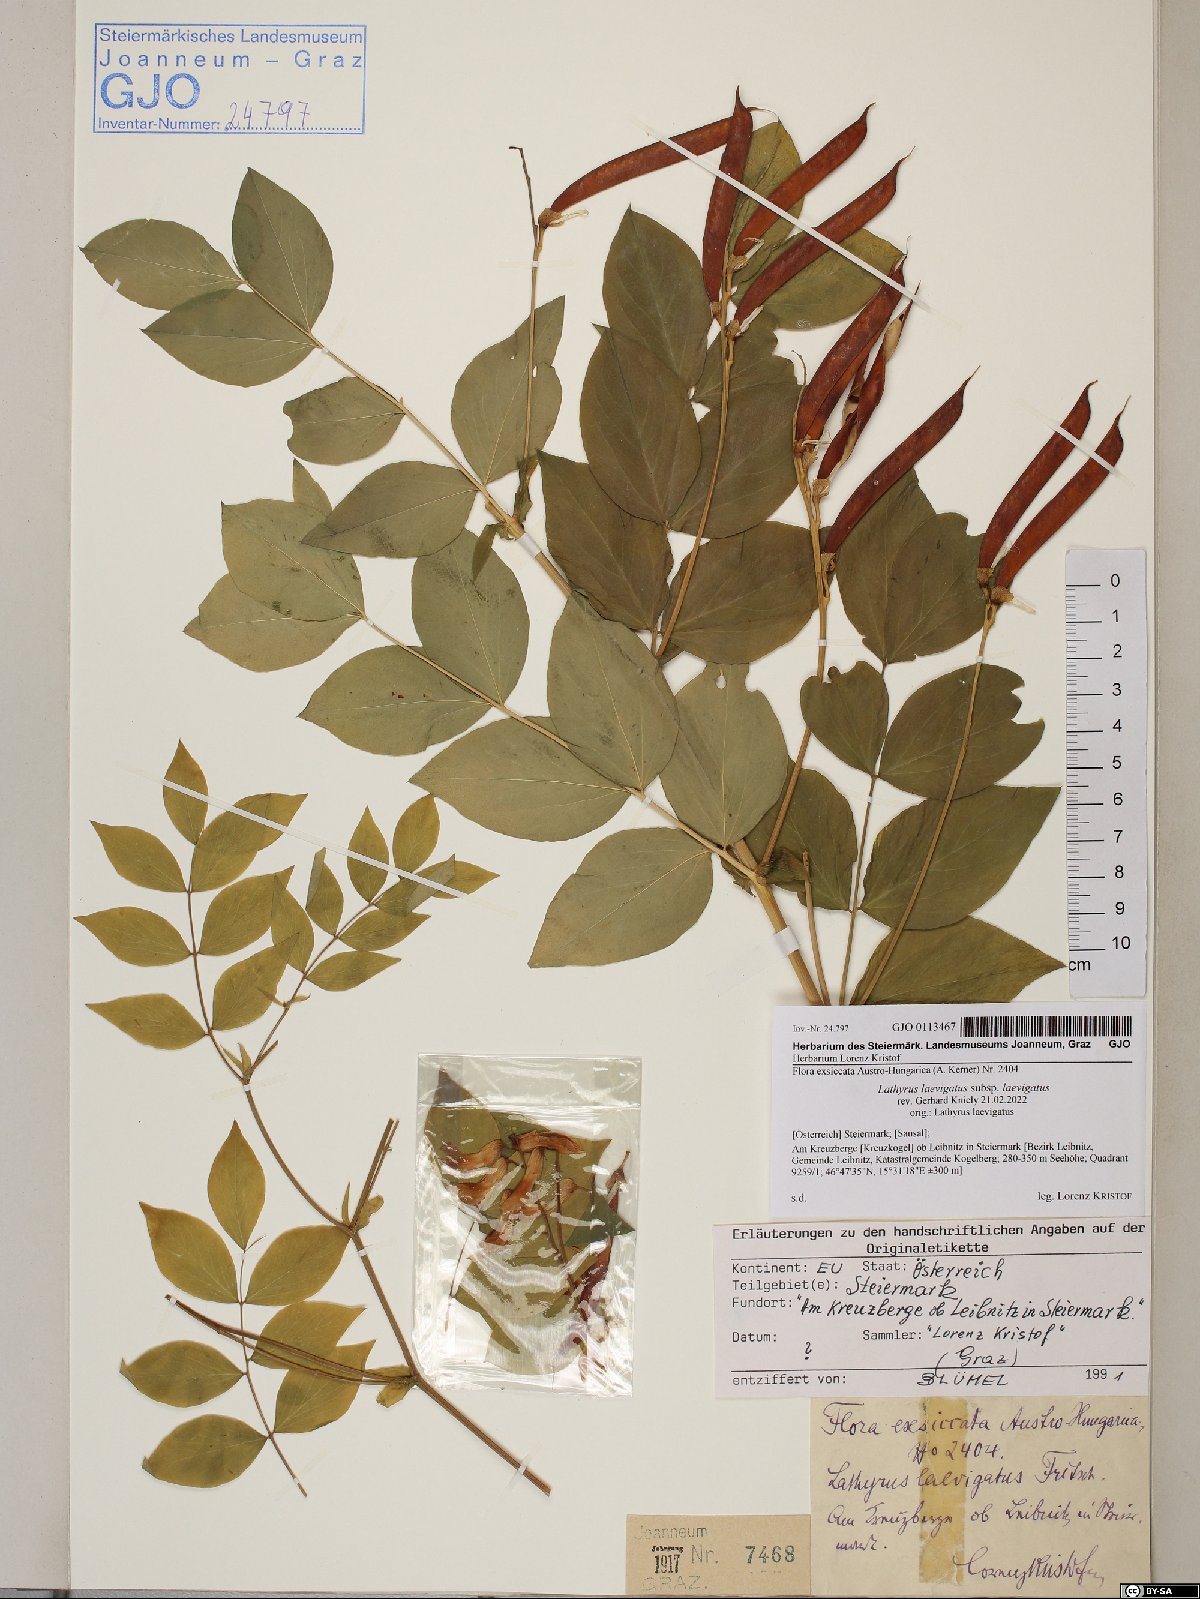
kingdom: Plantae
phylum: Tracheophyta
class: Magnoliopsida
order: Fabales
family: Fabaceae
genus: Lathyrus
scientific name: Lathyrus laevigatus
